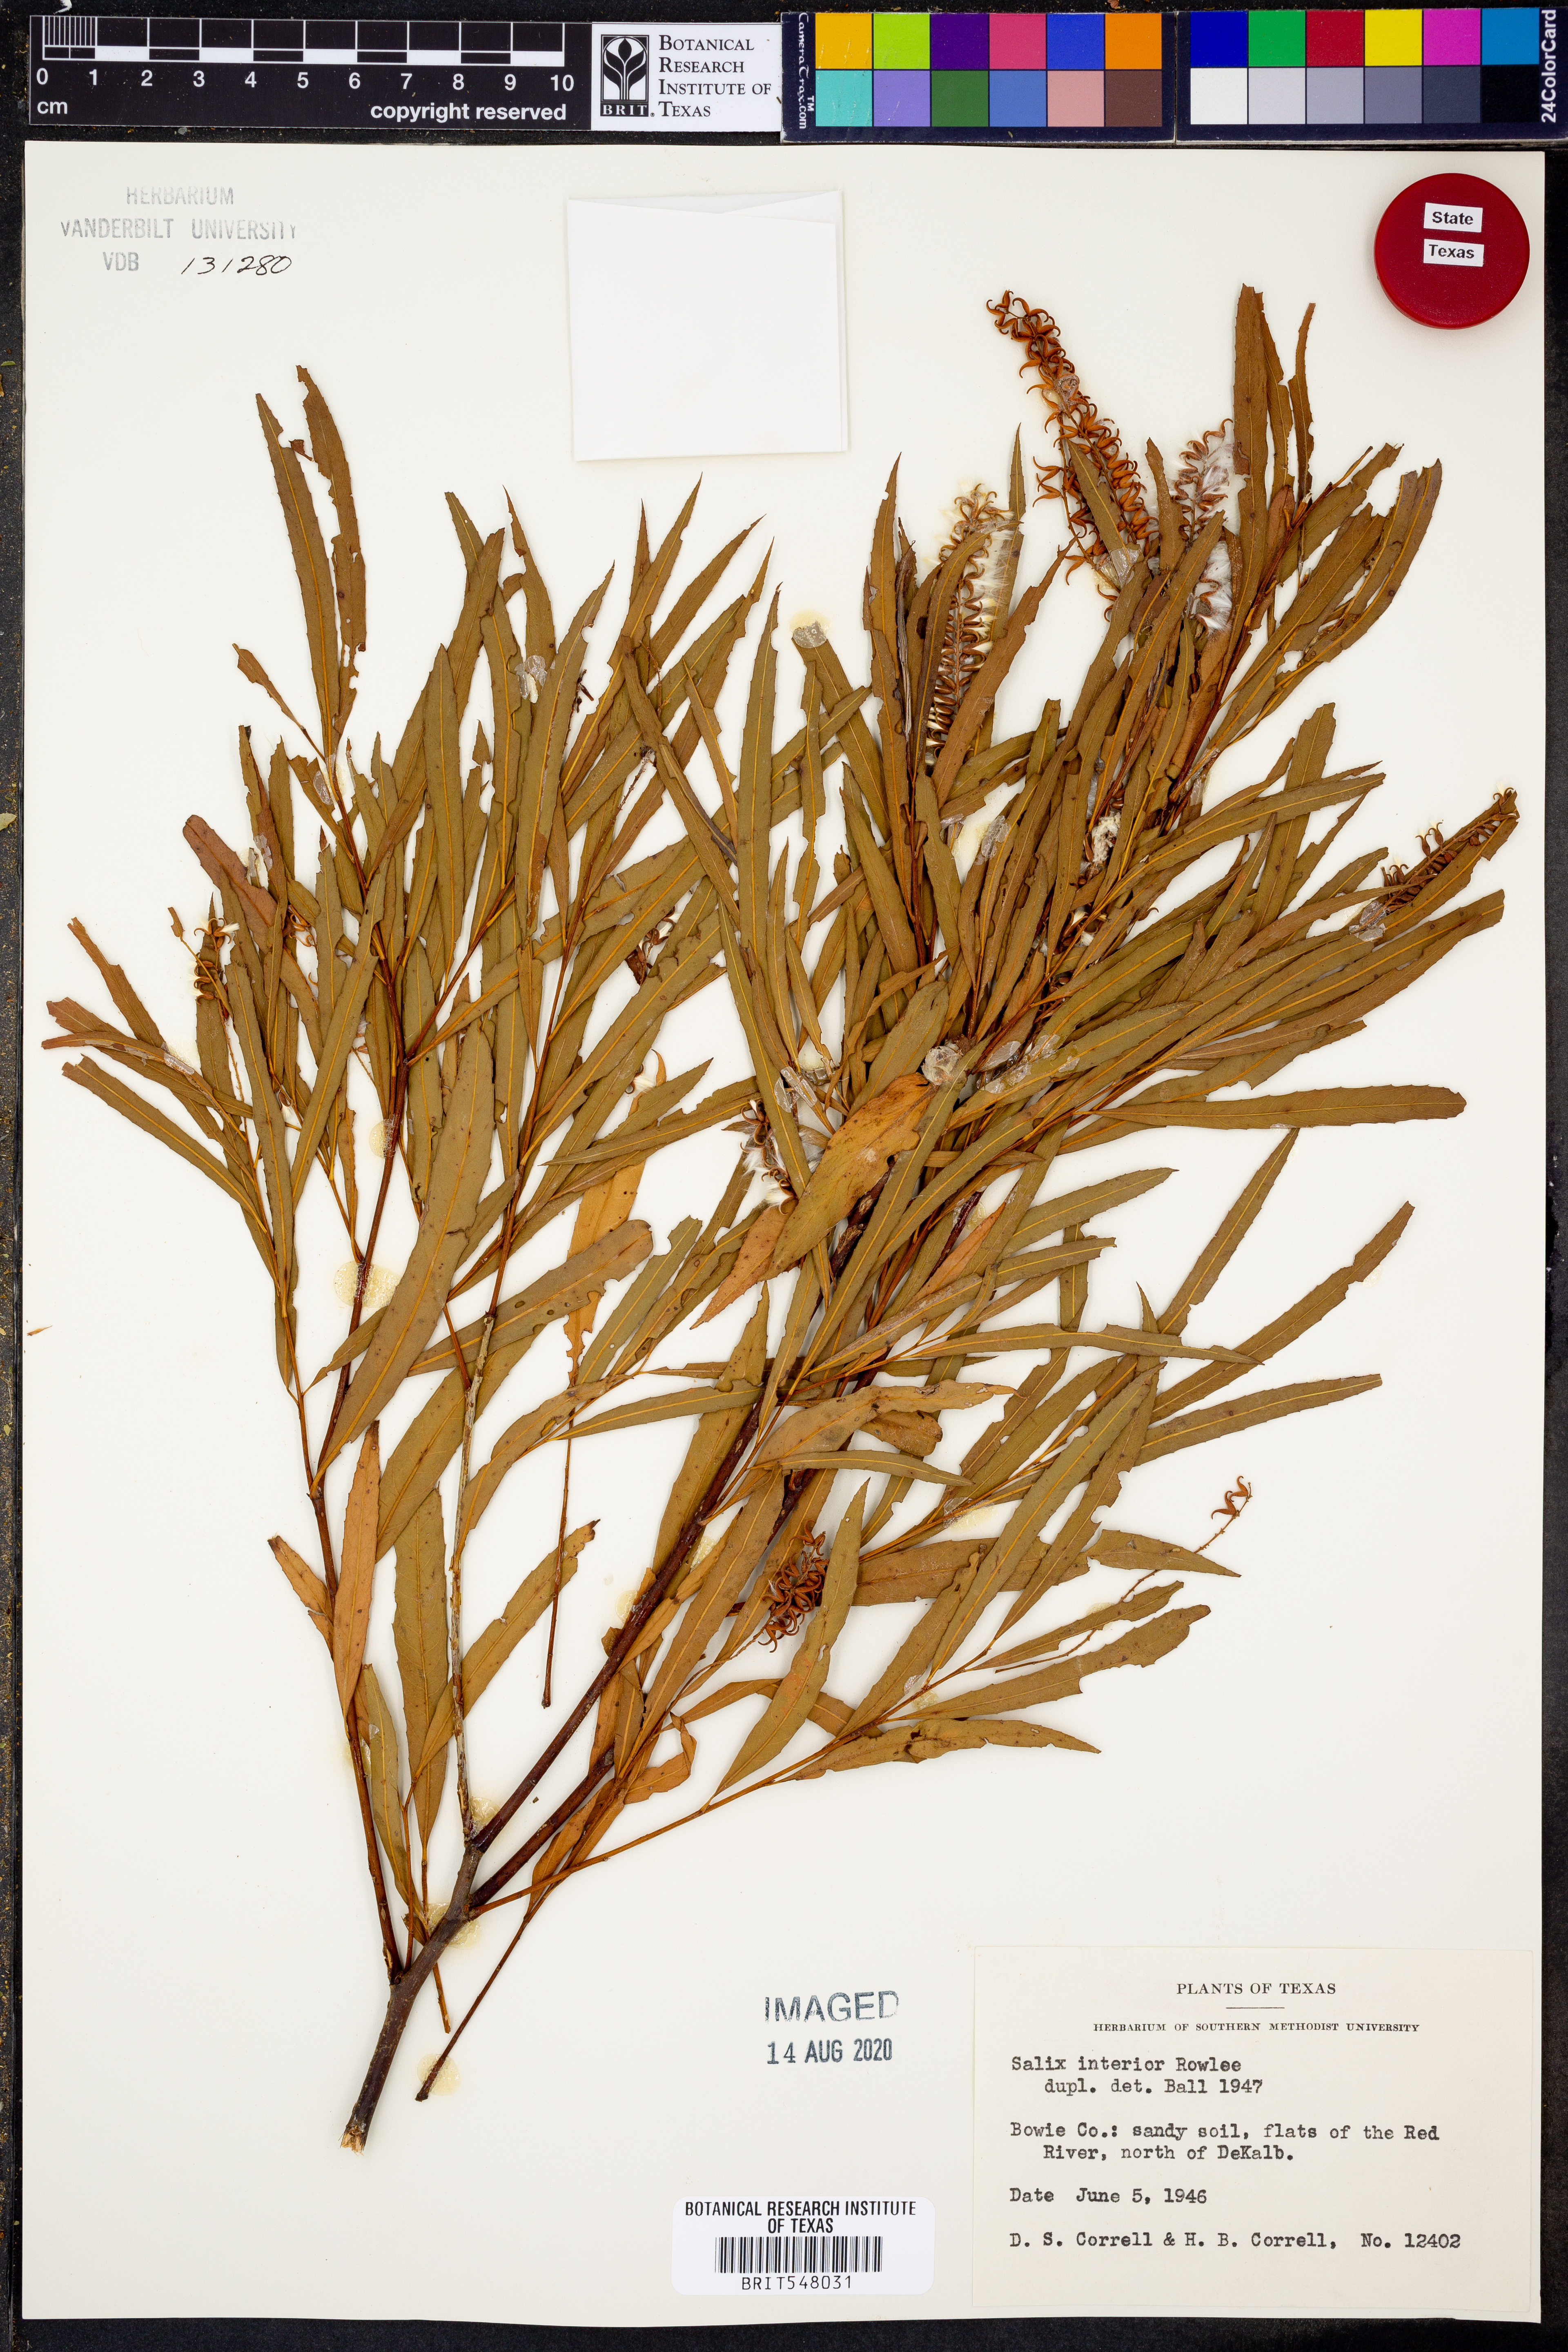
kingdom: Plantae
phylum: Tracheophyta
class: Magnoliopsida
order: Malpighiales
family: Salicaceae
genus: Salix
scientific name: Salix interior
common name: Sandbar willow
